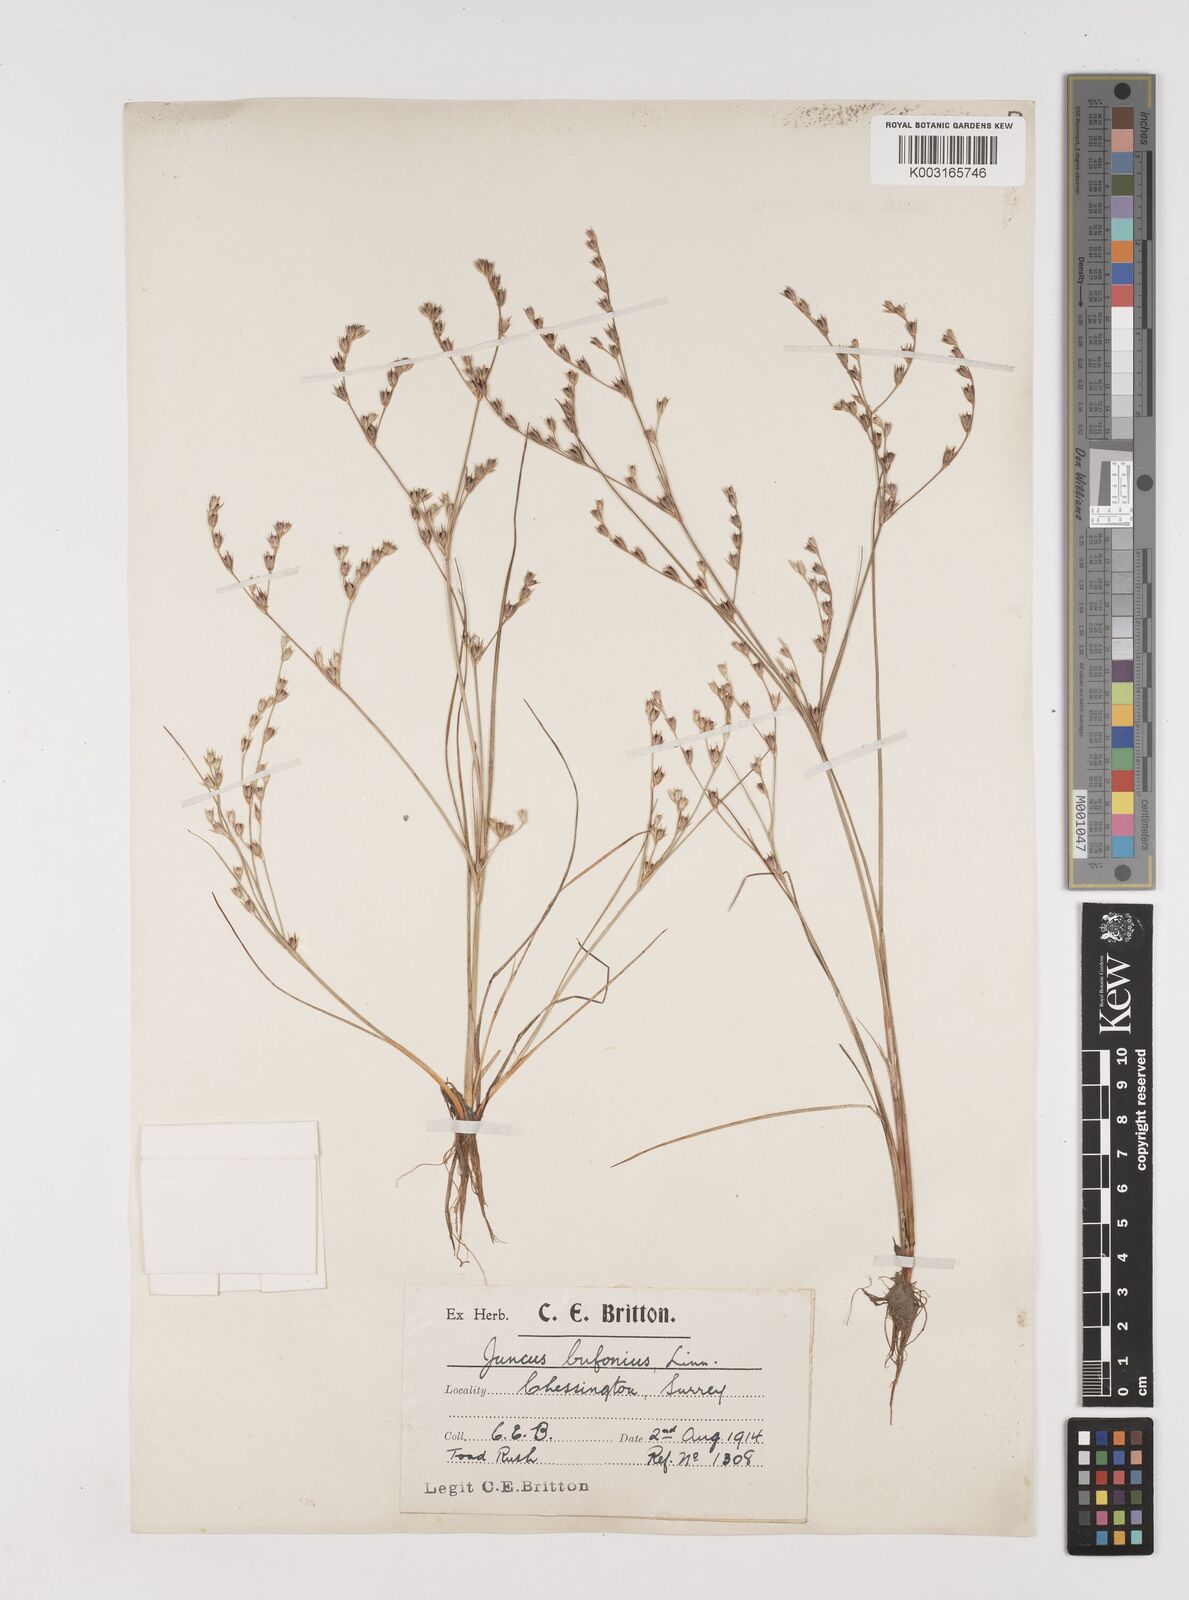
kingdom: Plantae
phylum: Tracheophyta
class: Liliopsida
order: Poales
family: Juncaceae
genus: Juncus
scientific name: Juncus bufonius
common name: Toad rush
